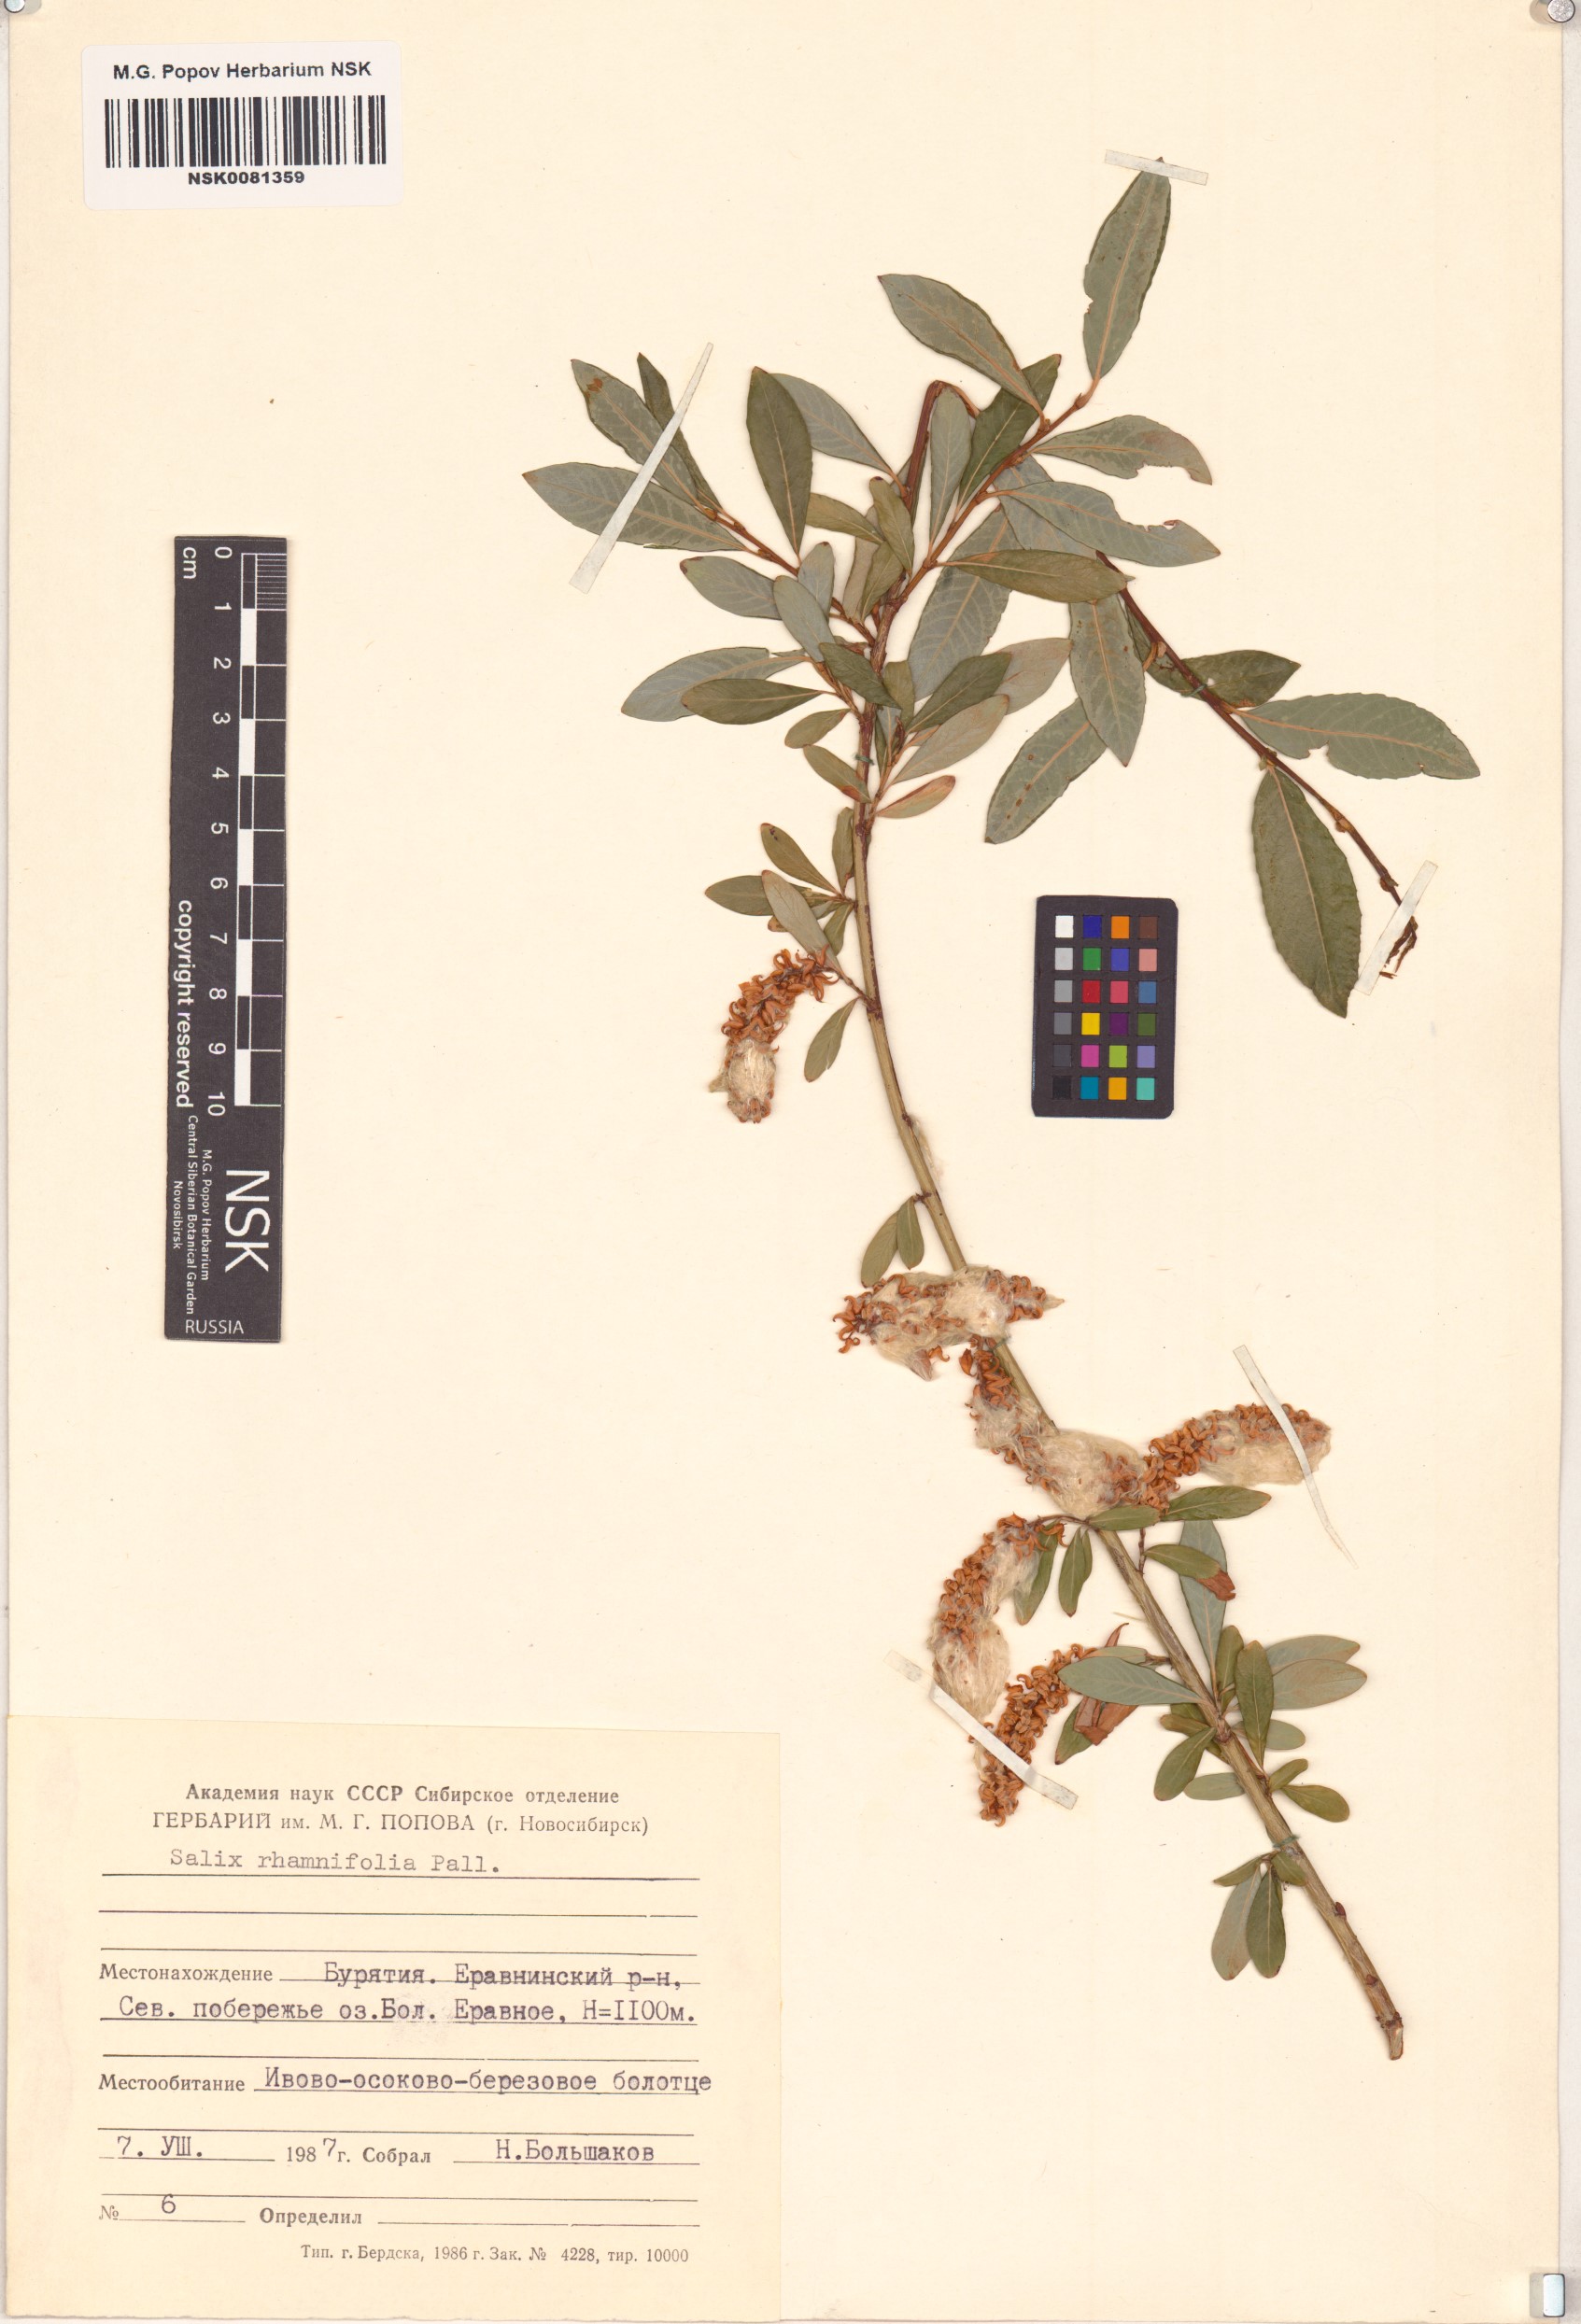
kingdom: Plantae
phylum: Tracheophyta
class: Magnoliopsida
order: Malpighiales
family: Salicaceae
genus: Salix
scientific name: Salix rhamnifolia
